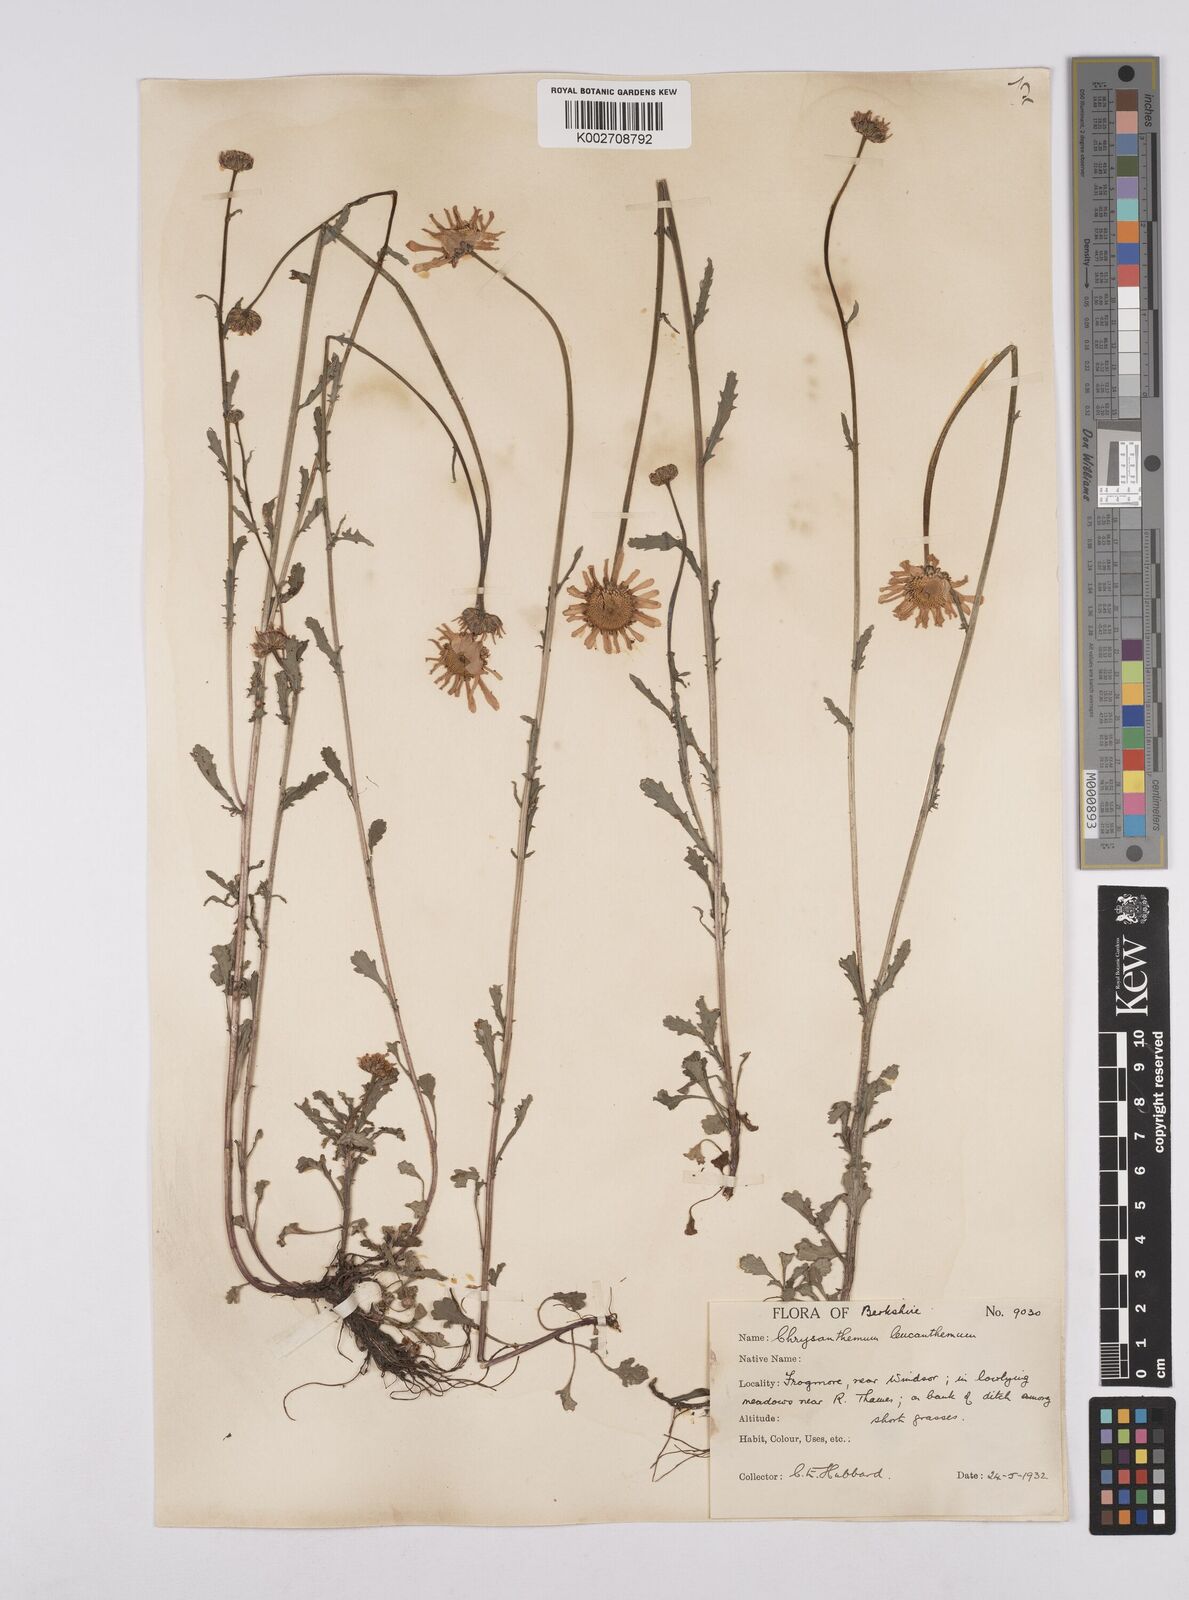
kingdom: Plantae
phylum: Tracheophyta
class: Magnoliopsida
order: Asterales
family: Asteraceae
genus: Leucanthemum
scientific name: Leucanthemum vulgare
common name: Oxeye daisy
